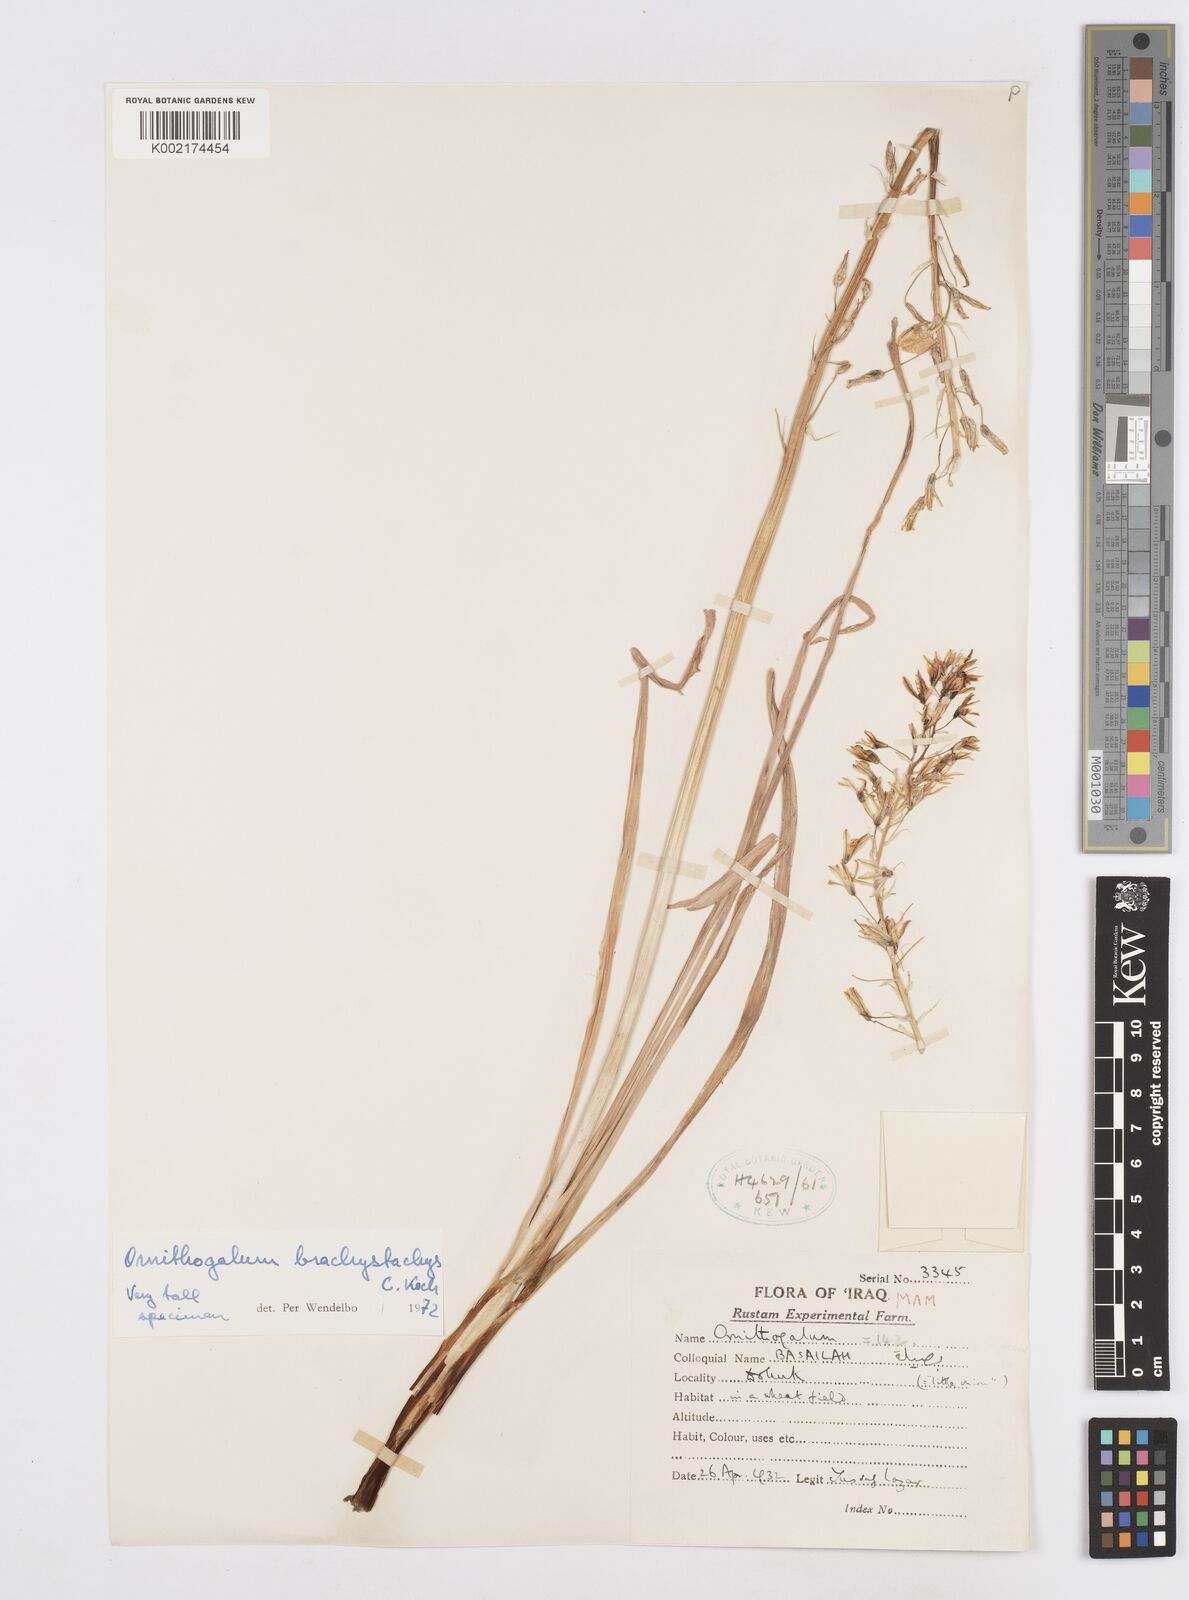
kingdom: Plantae
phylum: Tracheophyta
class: Liliopsida
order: Asparagales
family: Asparagaceae
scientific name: Asparagaceae
